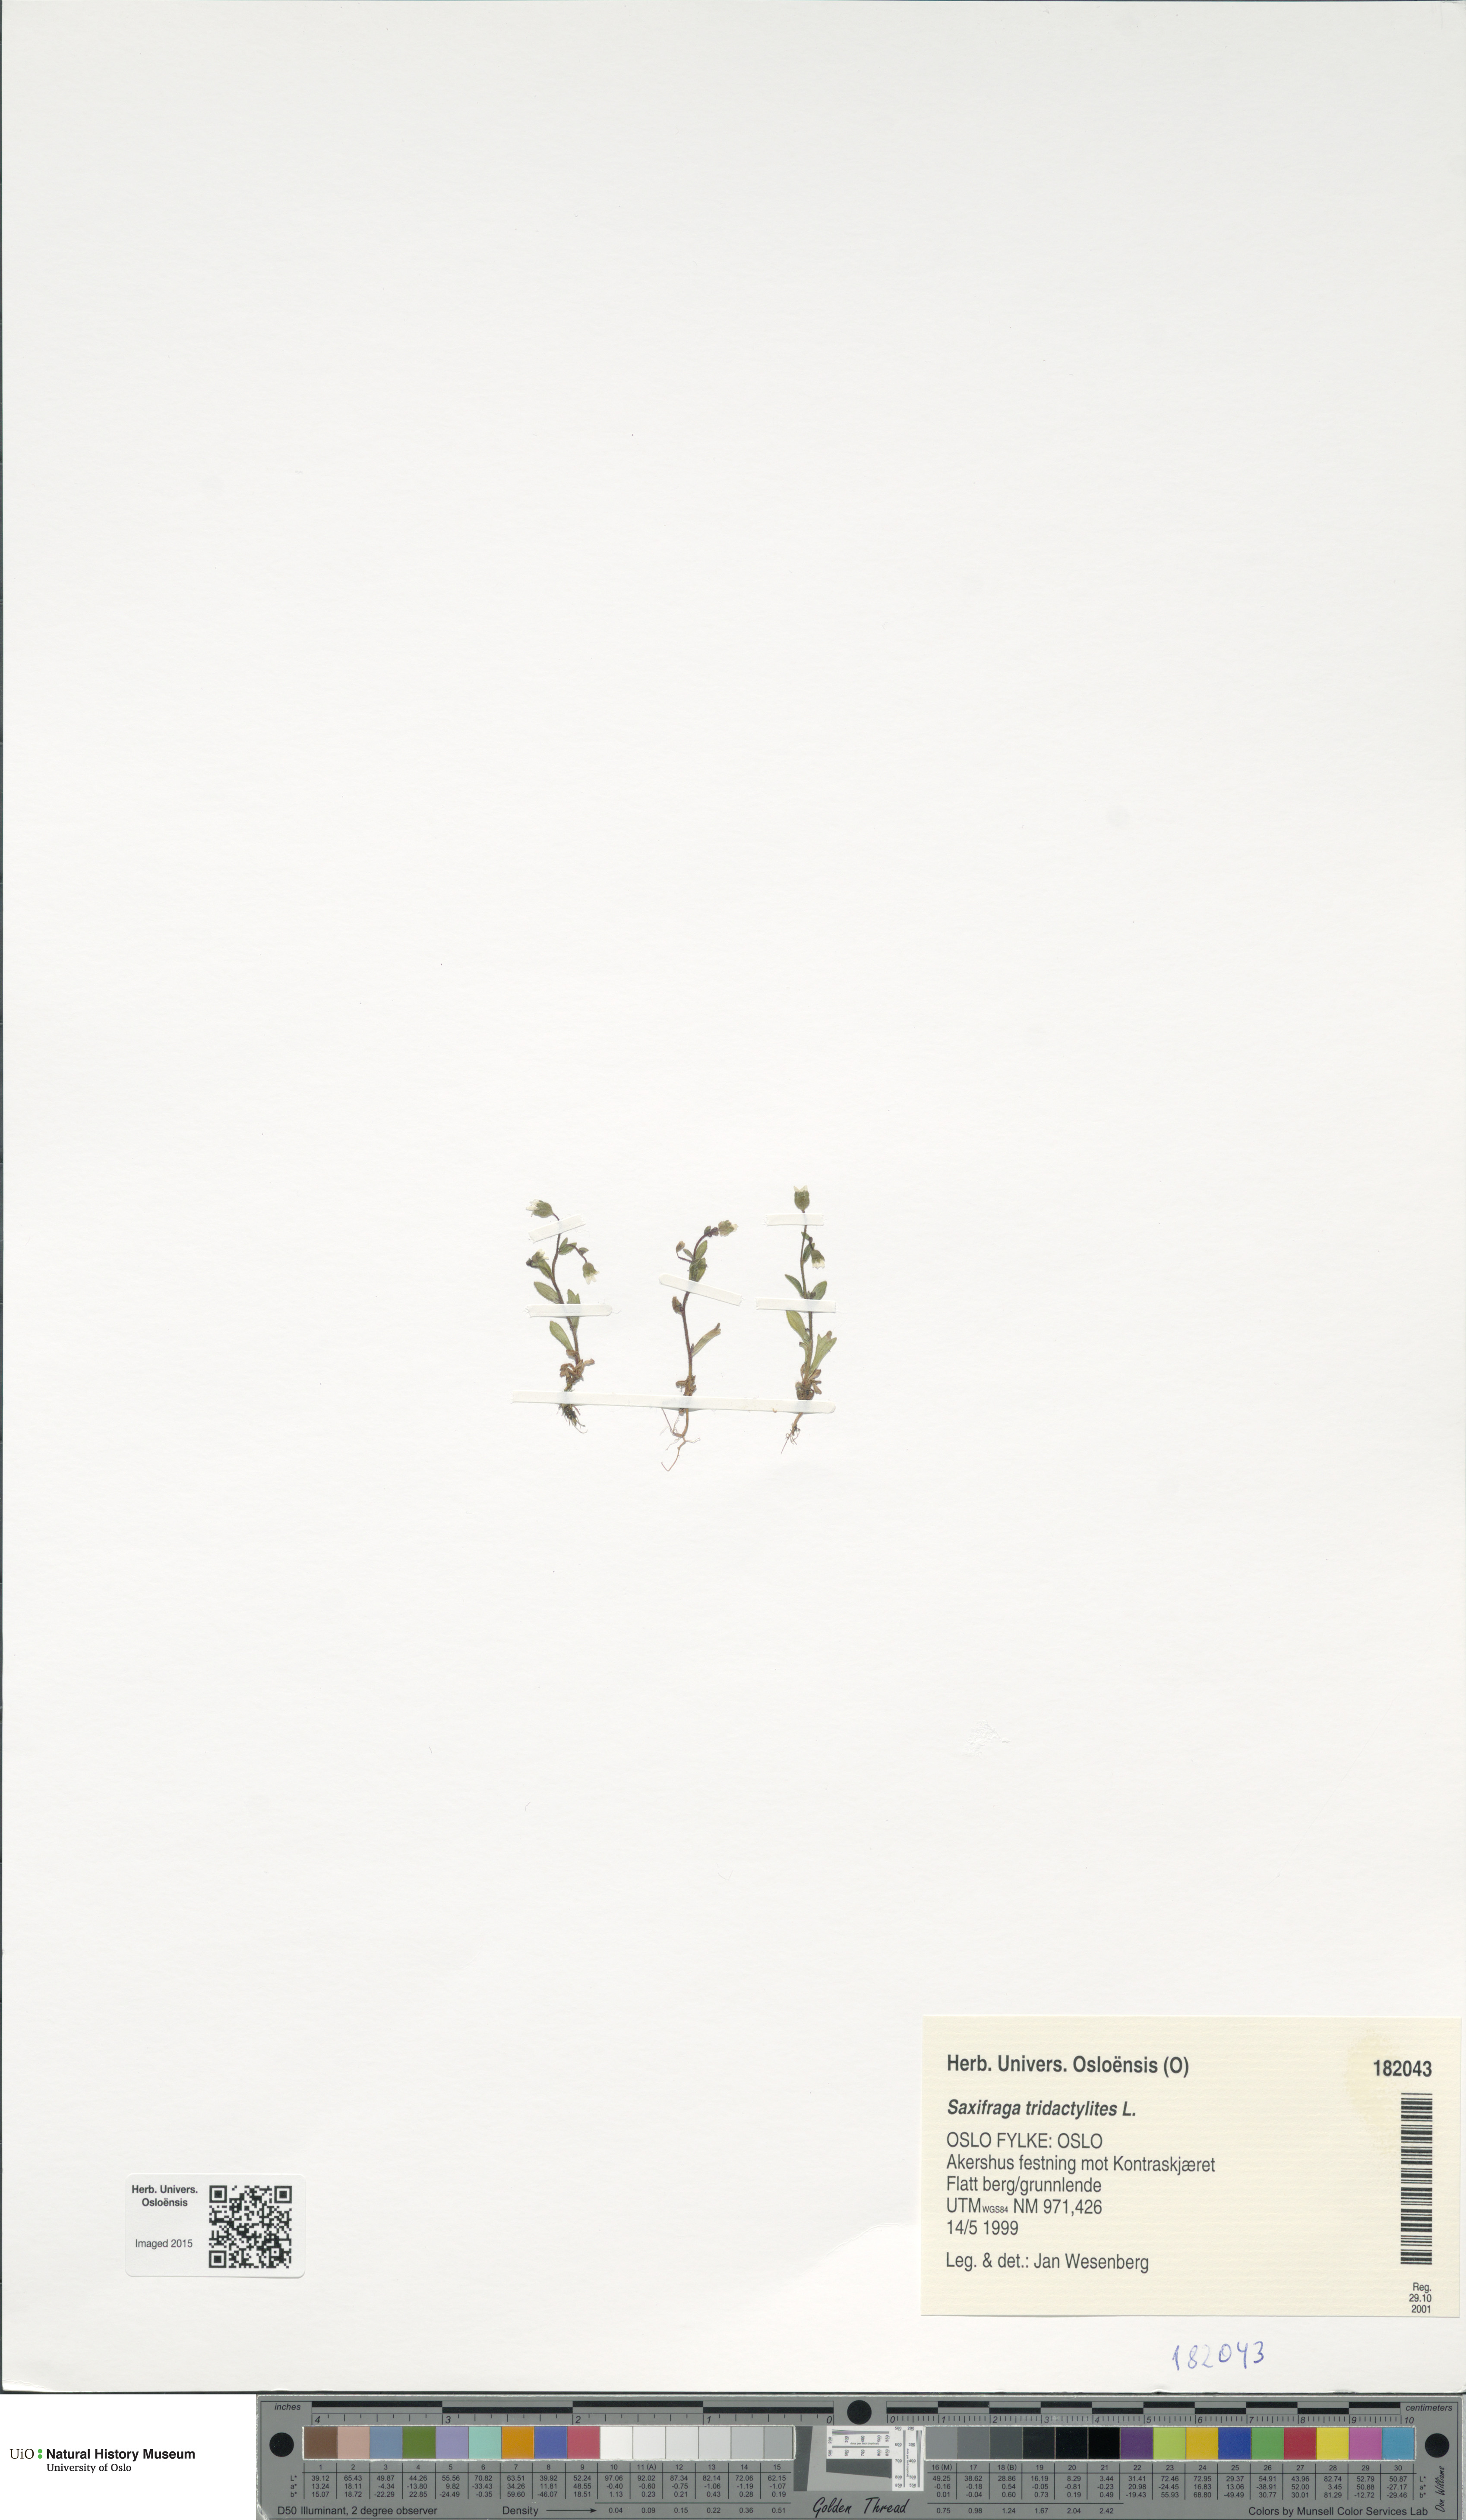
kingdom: Plantae
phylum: Tracheophyta
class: Magnoliopsida
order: Saxifragales
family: Saxifragaceae
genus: Saxifraga
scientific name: Saxifraga tridactylites
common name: Rue-leaved saxifrage
